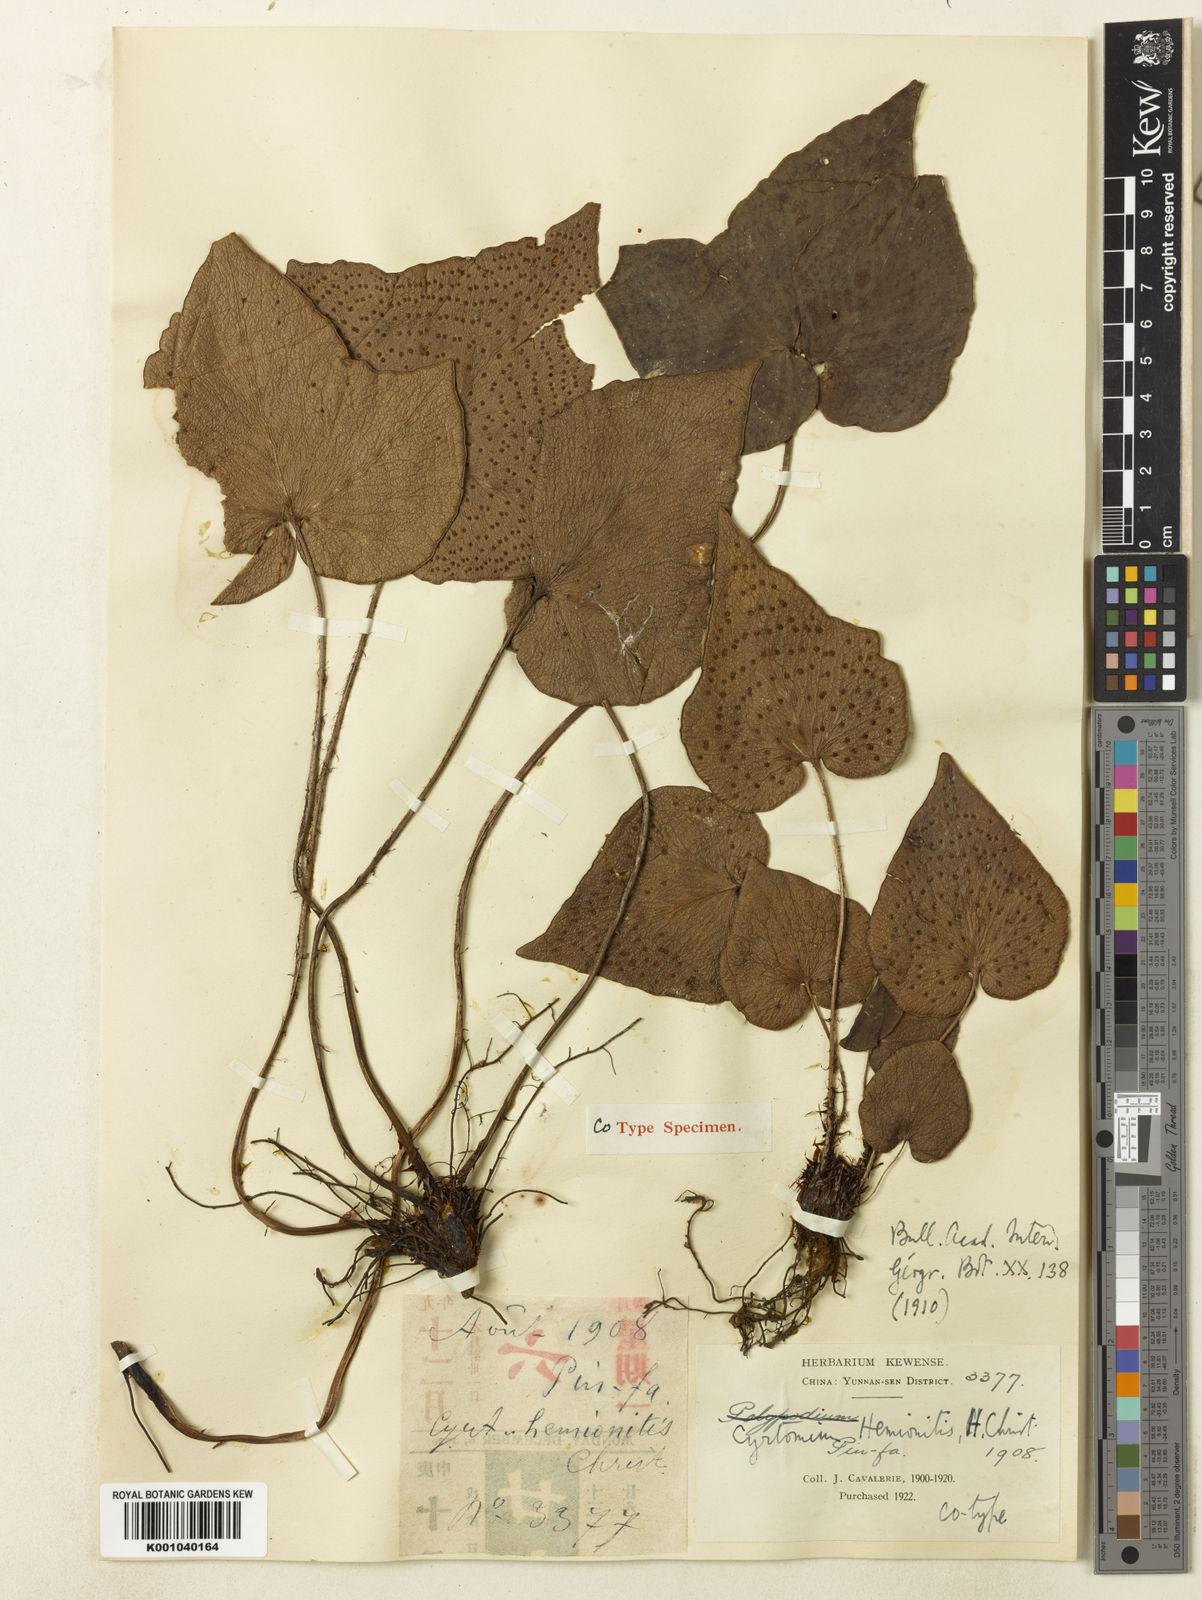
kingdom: Plantae
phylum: Tracheophyta
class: Polypodiopsida
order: Polypodiales
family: Dryopteridaceae
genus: Cyrtomium
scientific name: Cyrtomium grossum
